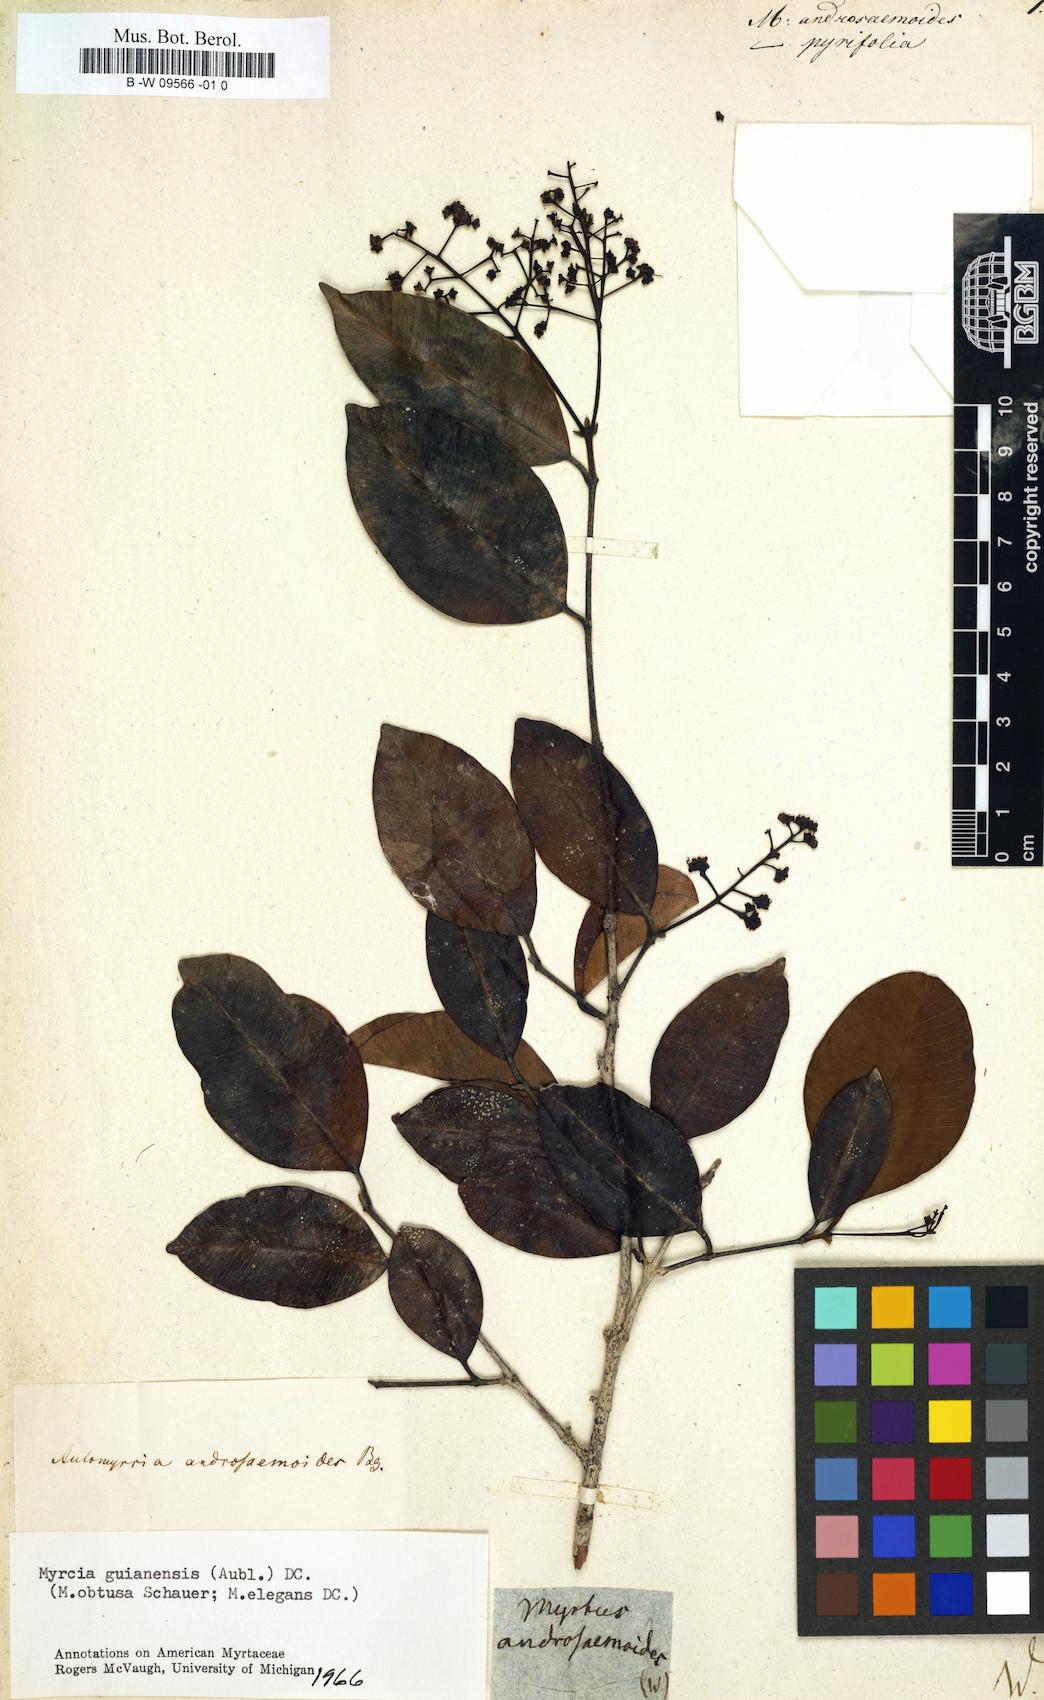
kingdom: Plantae
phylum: Tracheophyta
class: Magnoliopsida
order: Myrtales
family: Myrtaceae
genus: Syzygium
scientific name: Syzygium cordifolium
